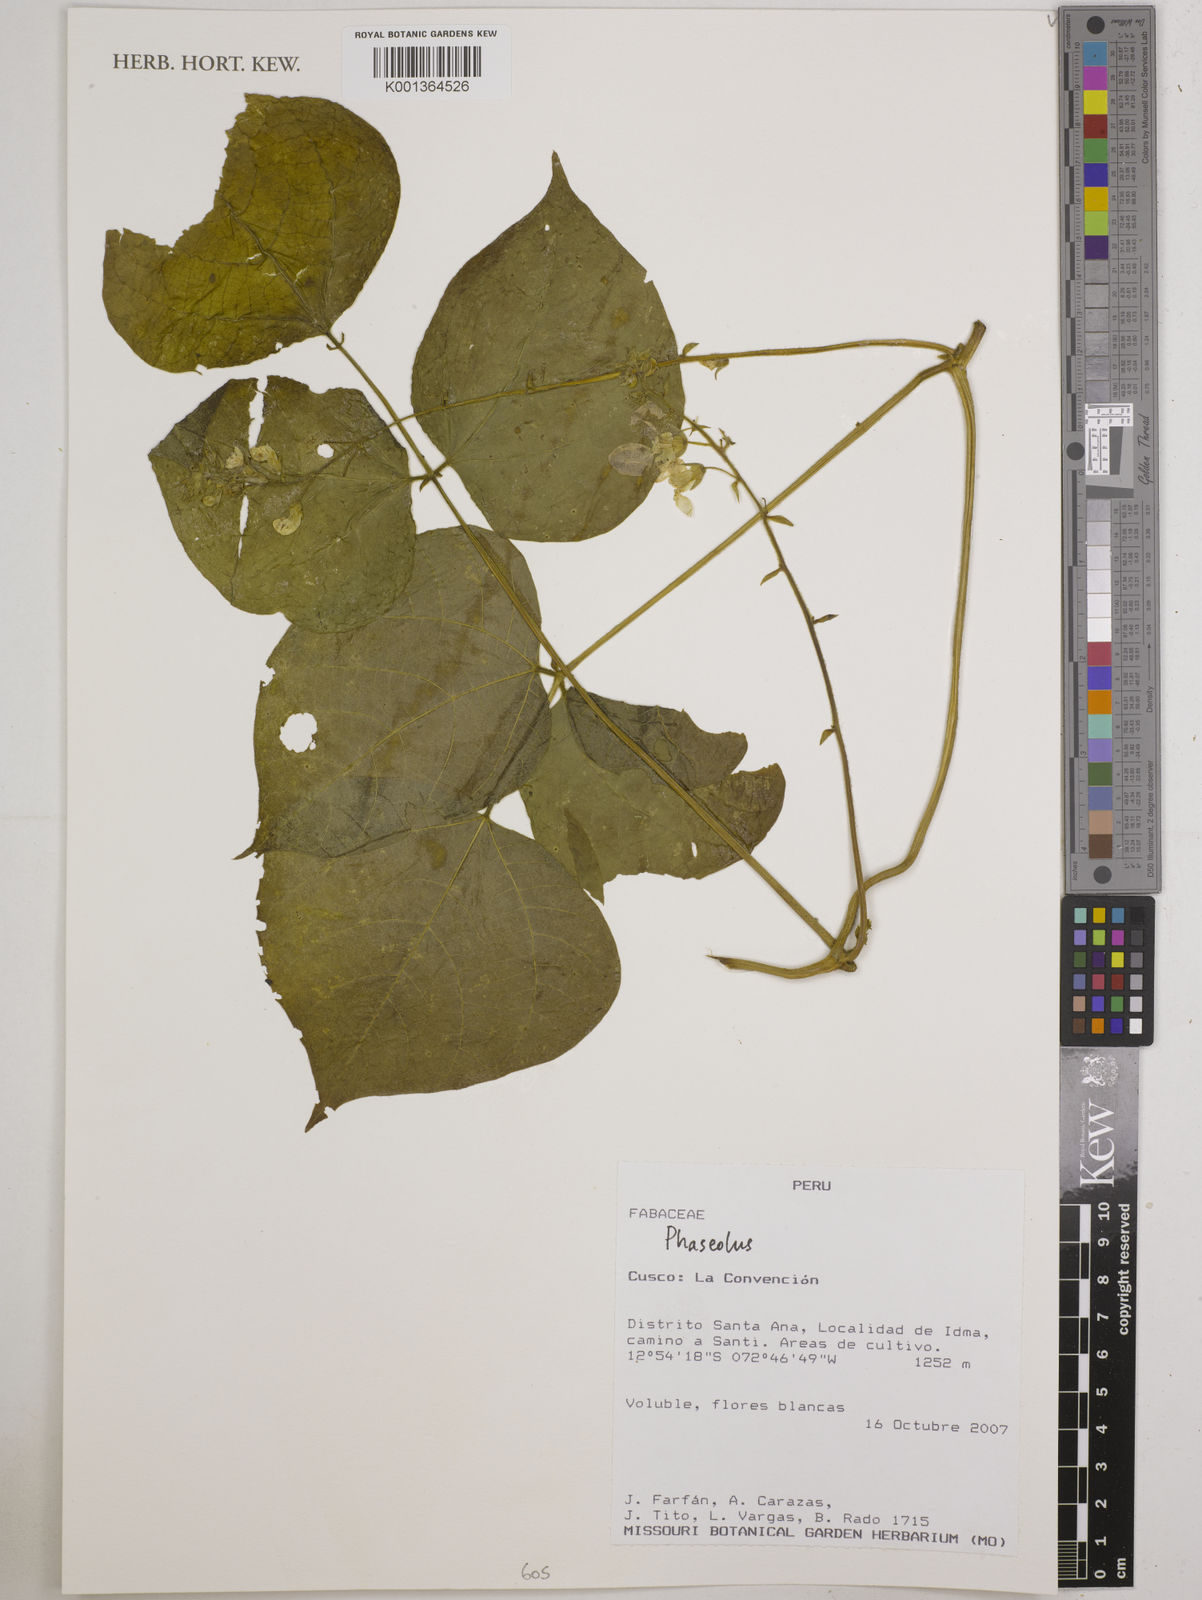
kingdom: Plantae
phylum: Tracheophyta
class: Magnoliopsida
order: Fabales
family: Fabaceae
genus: Phaseolus
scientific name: Phaseolus
